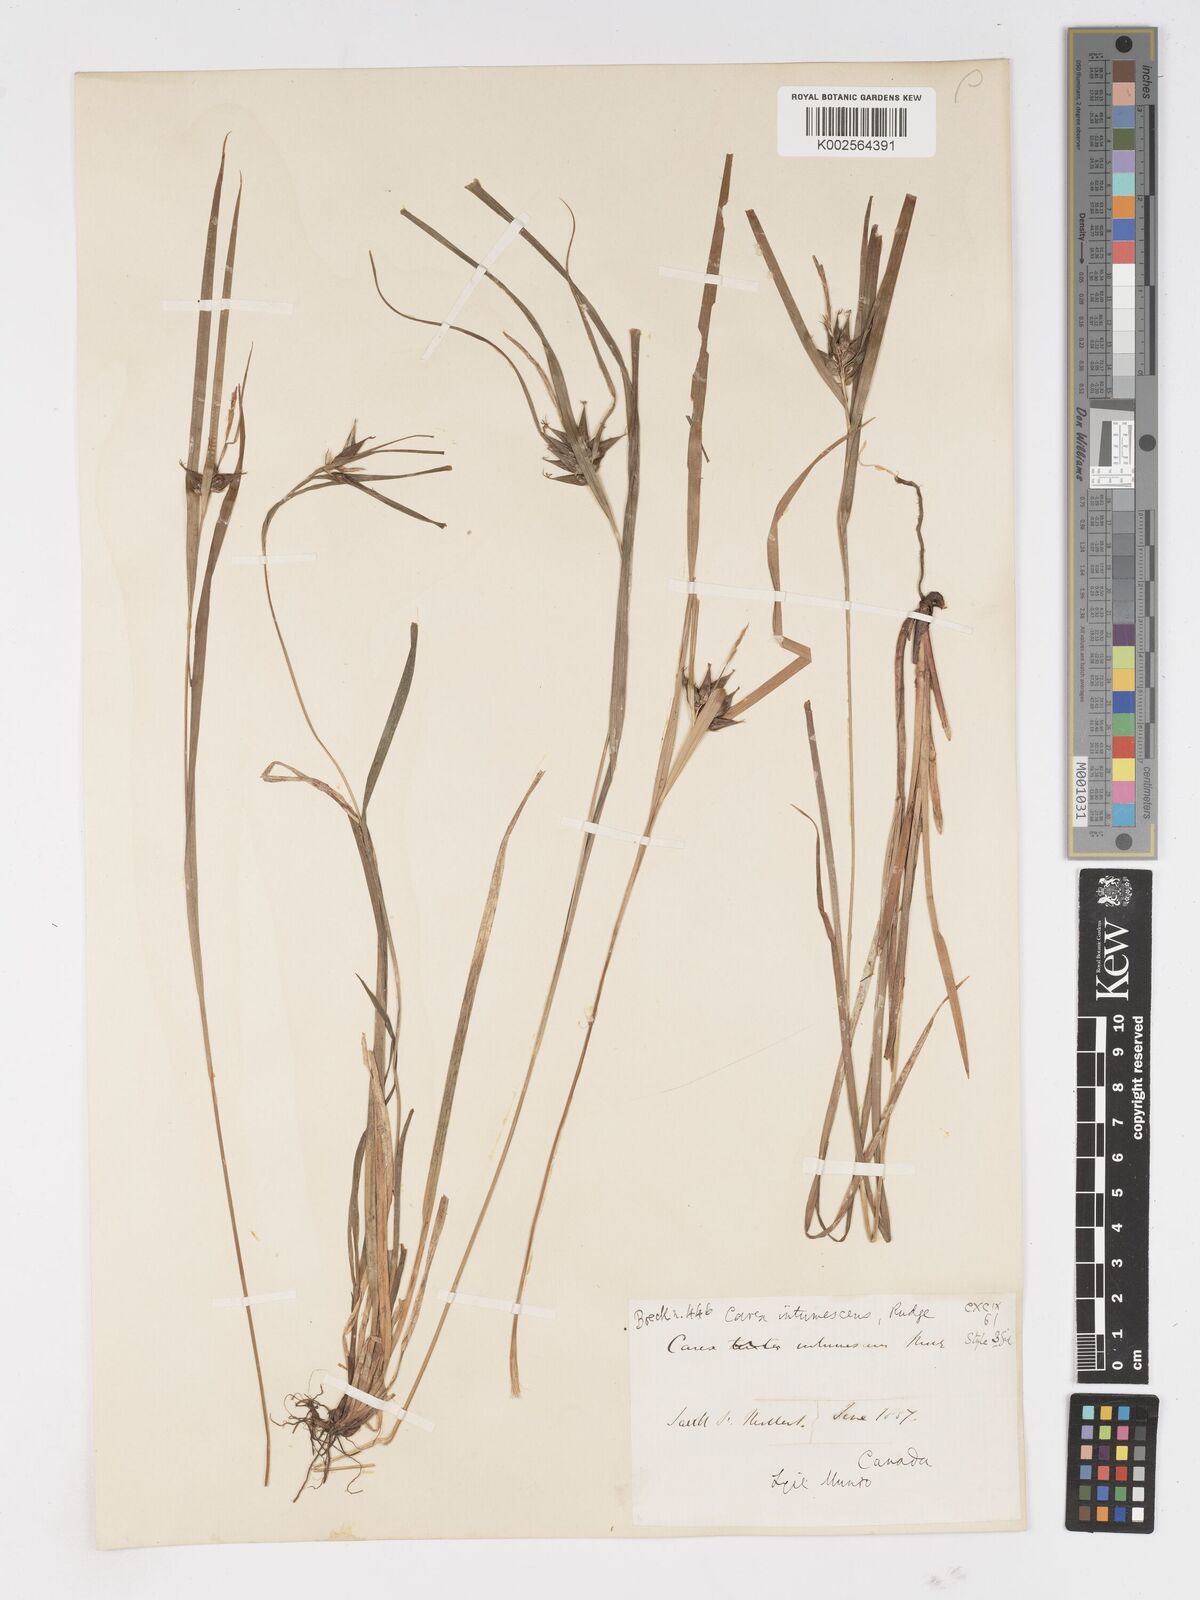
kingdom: Plantae
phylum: Tracheophyta
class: Liliopsida
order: Poales
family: Cyperaceae
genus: Carex
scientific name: Carex intumescens
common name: Greater bladder sedge
